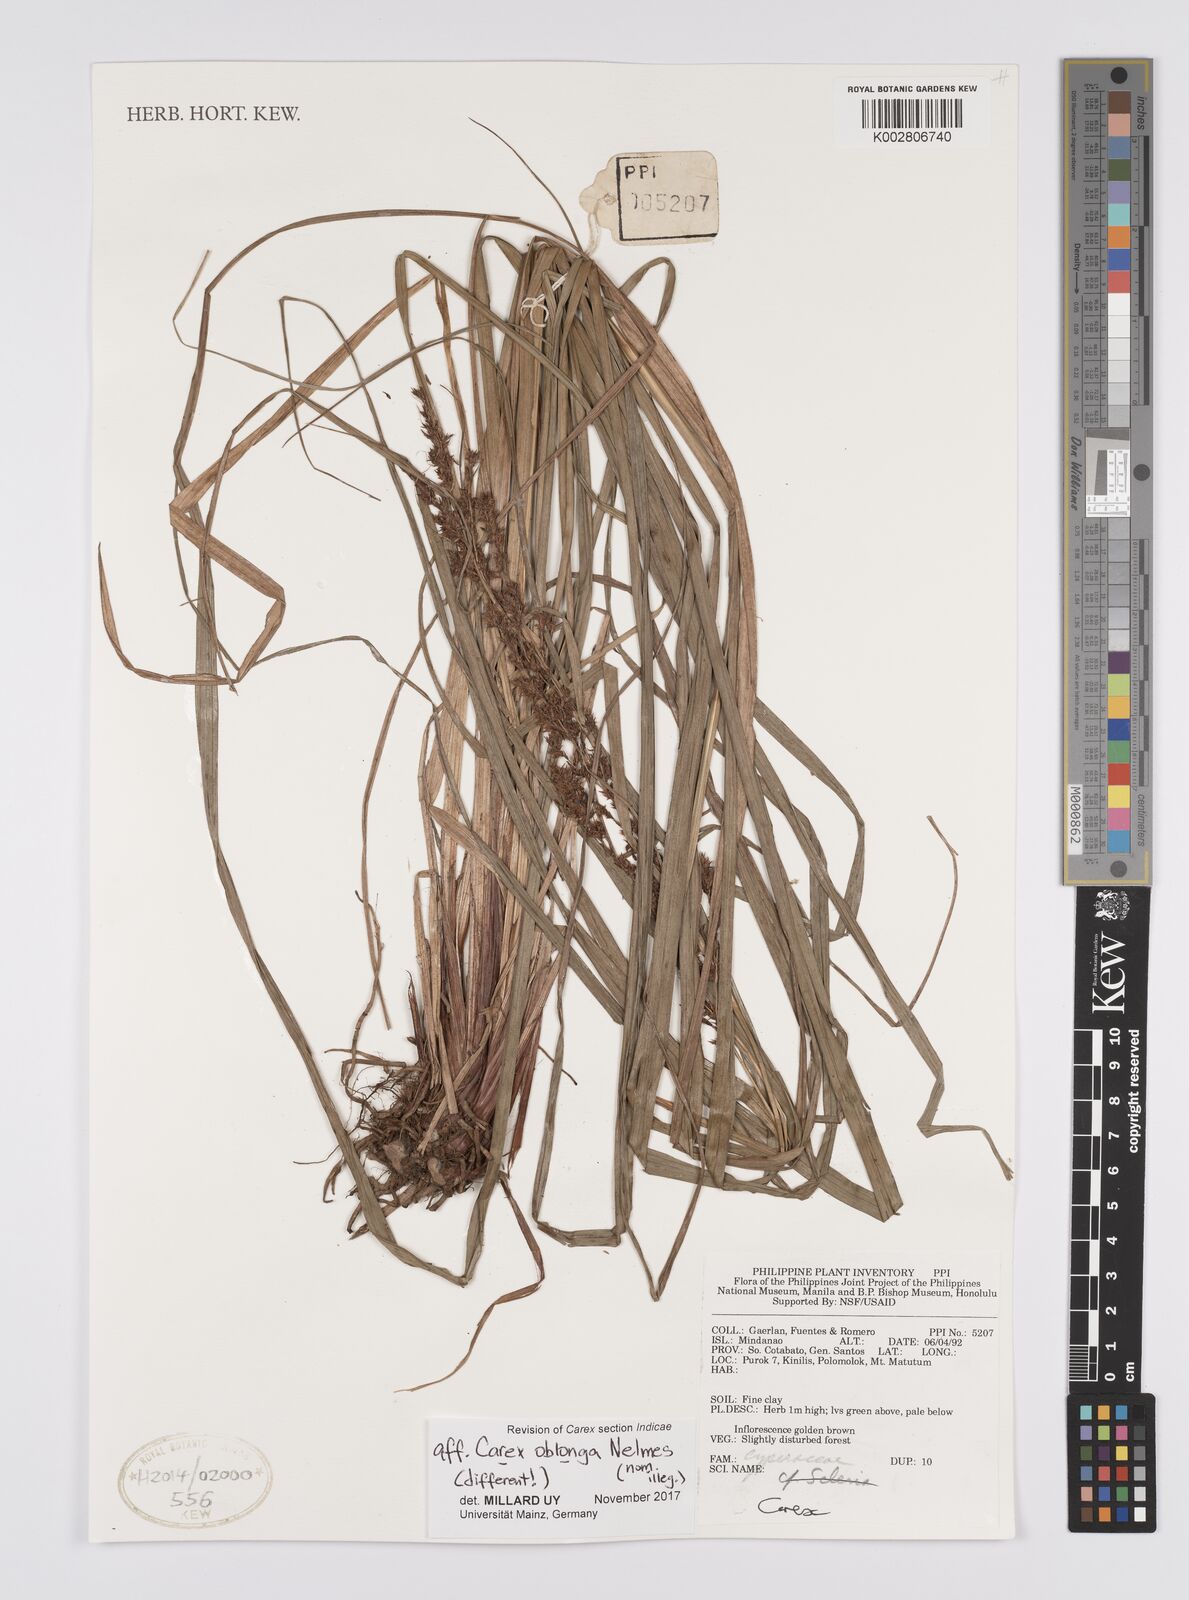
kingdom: Plantae
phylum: Tracheophyta
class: Liliopsida
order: Poales
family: Cyperaceae
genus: Carex
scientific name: Carex
